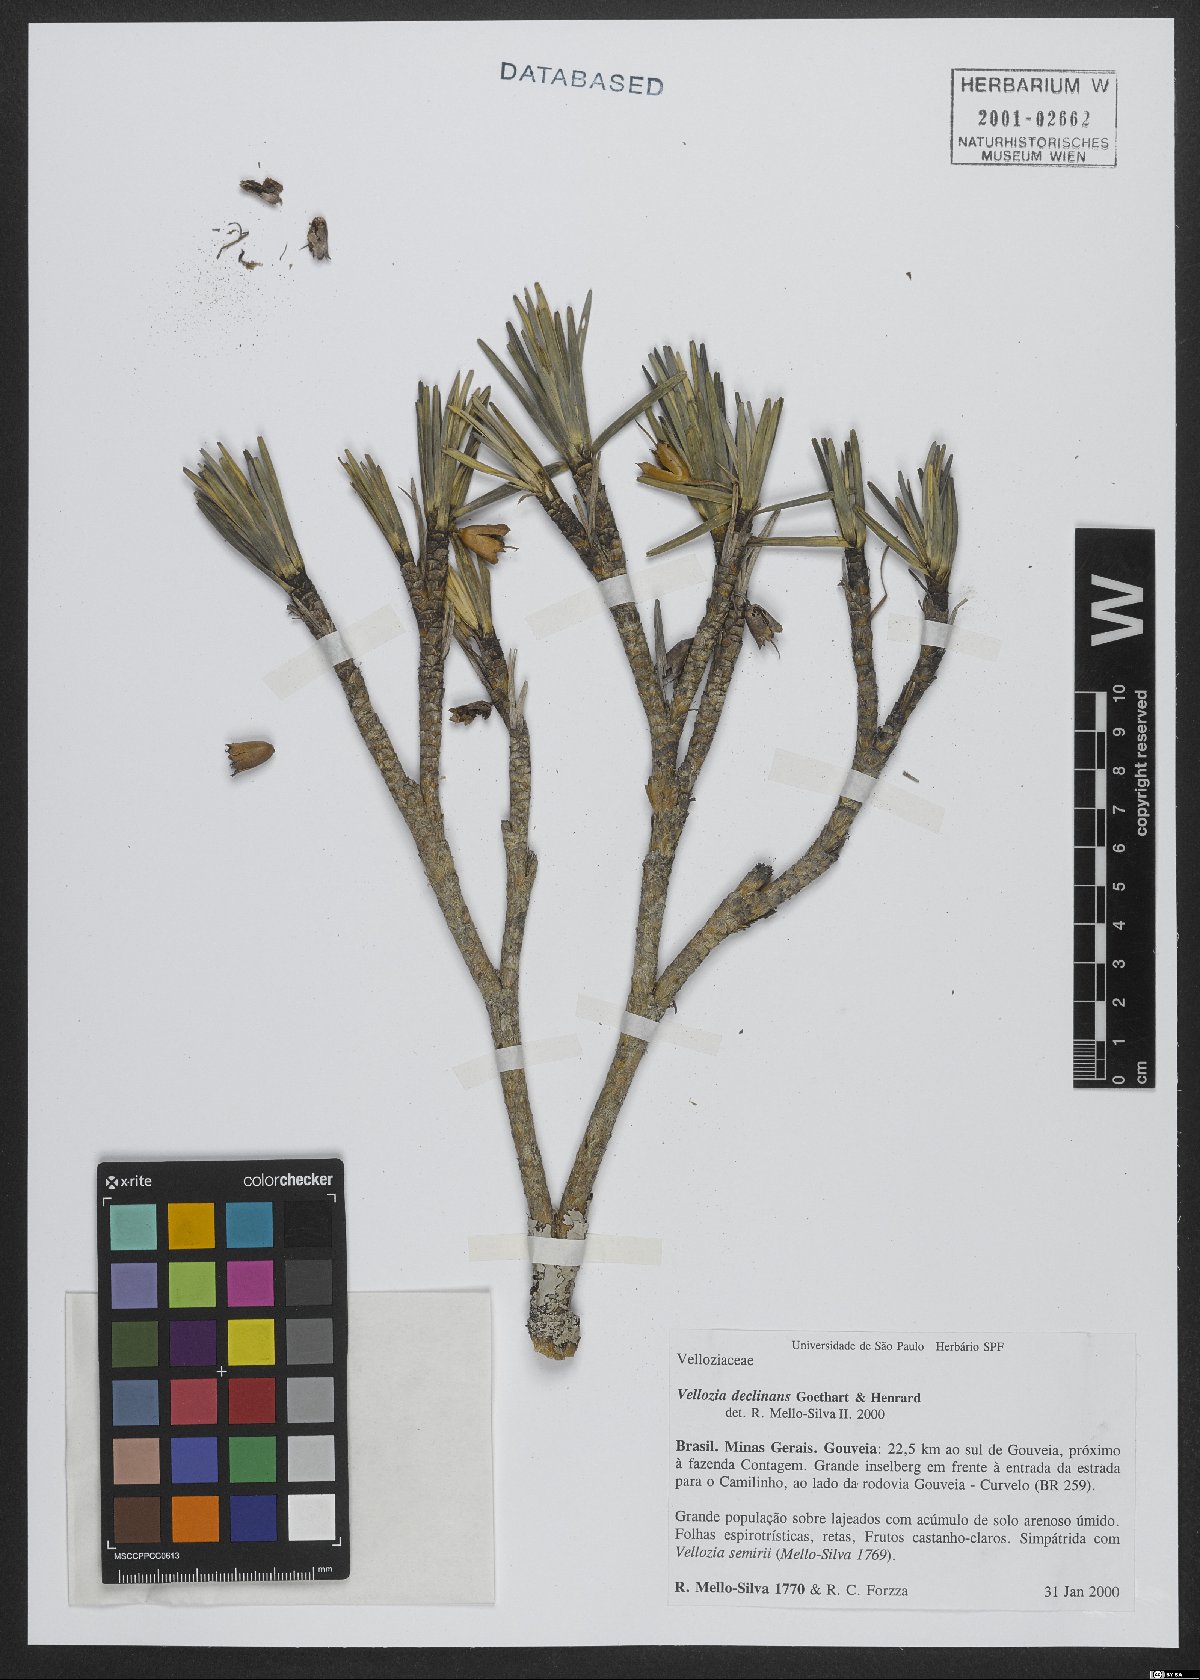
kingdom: Plantae
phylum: Tracheophyta
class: Liliopsida
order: Pandanales
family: Velloziaceae
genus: Vellozia
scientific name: Vellozia declinans
